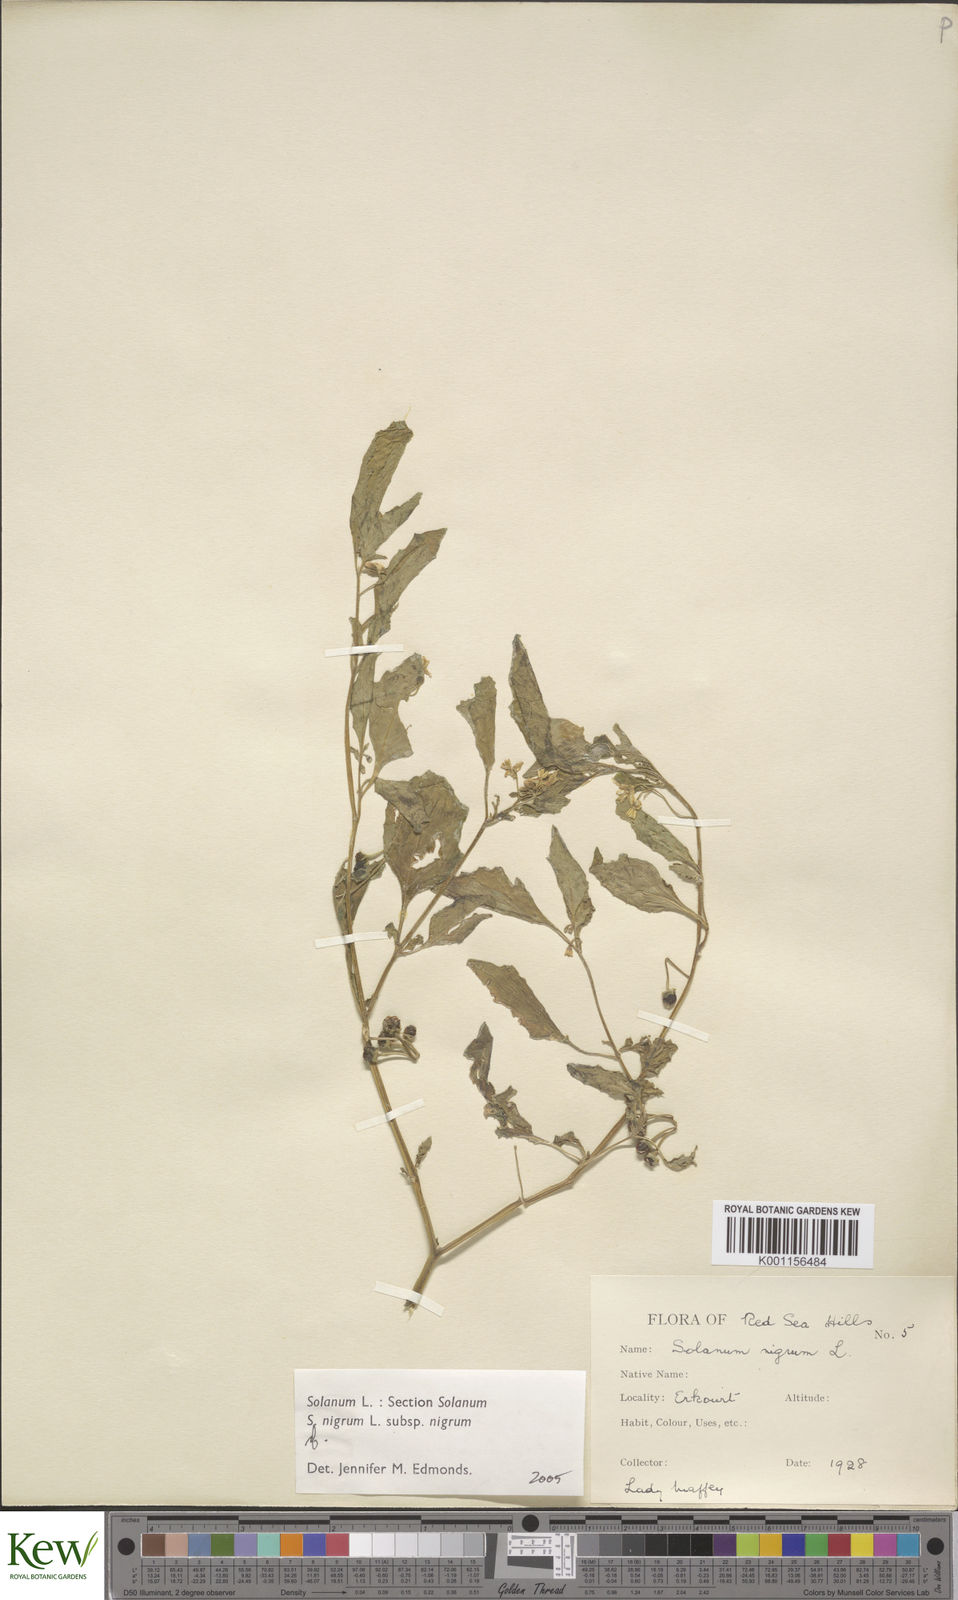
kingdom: Plantae
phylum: Tracheophyta
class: Magnoliopsida
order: Solanales
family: Solanaceae
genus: Solanum
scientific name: Solanum villosum
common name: Red nightshade
